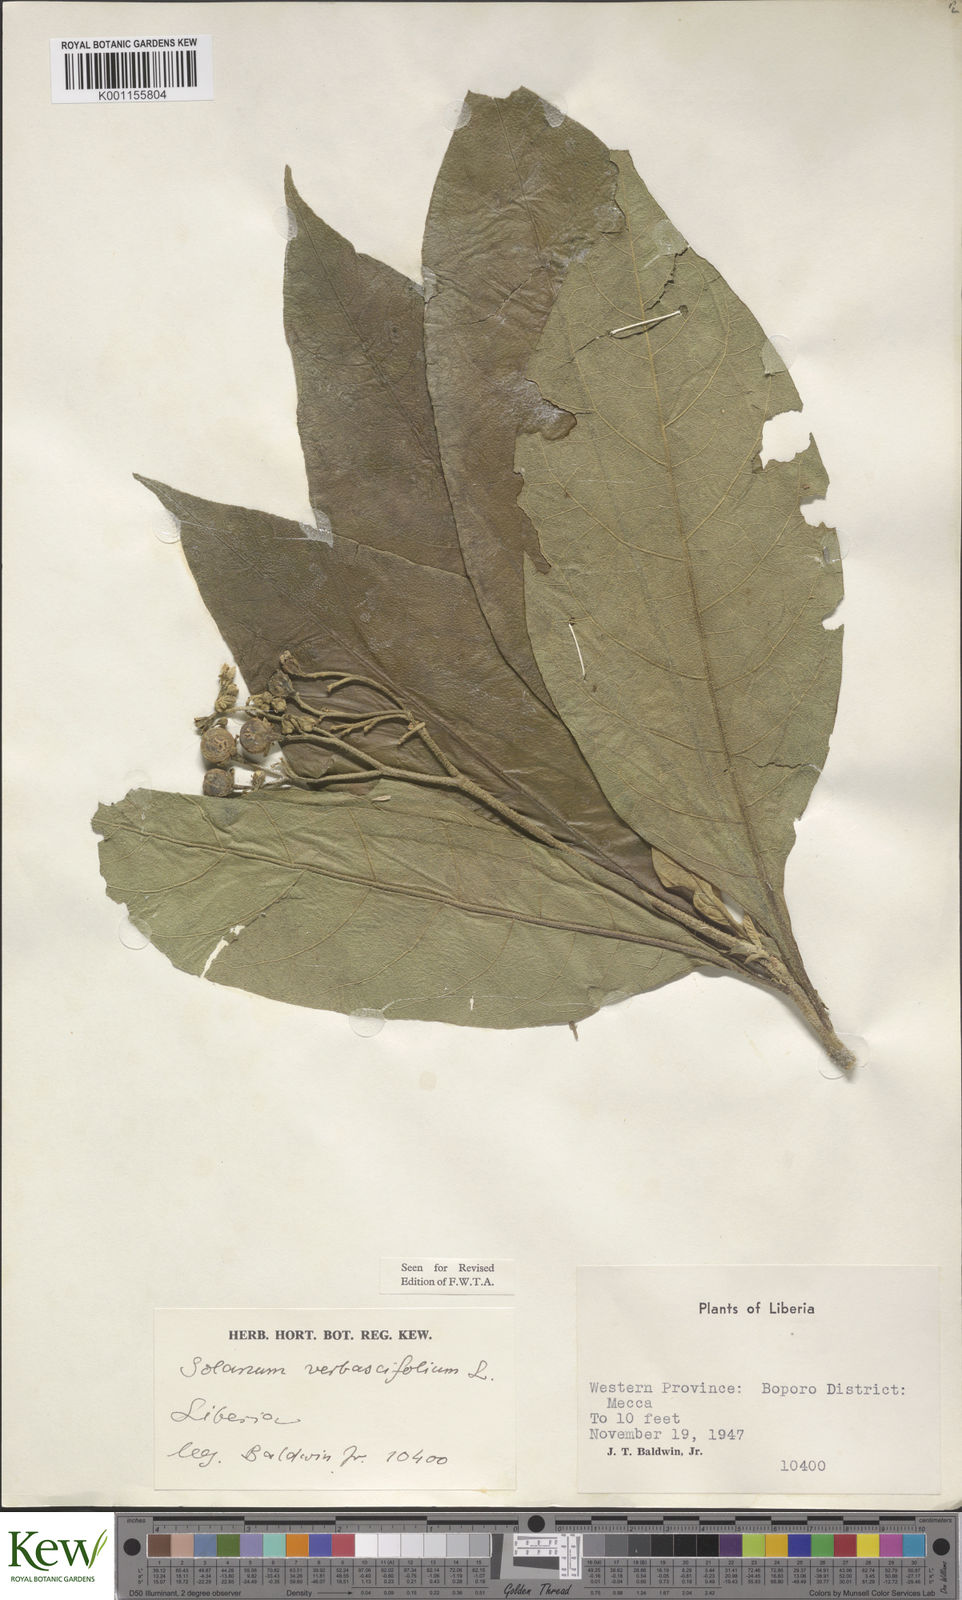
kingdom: Plantae
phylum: Tracheophyta
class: Magnoliopsida
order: Solanales
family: Solanaceae
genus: Solanum
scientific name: Solanum rugosum
